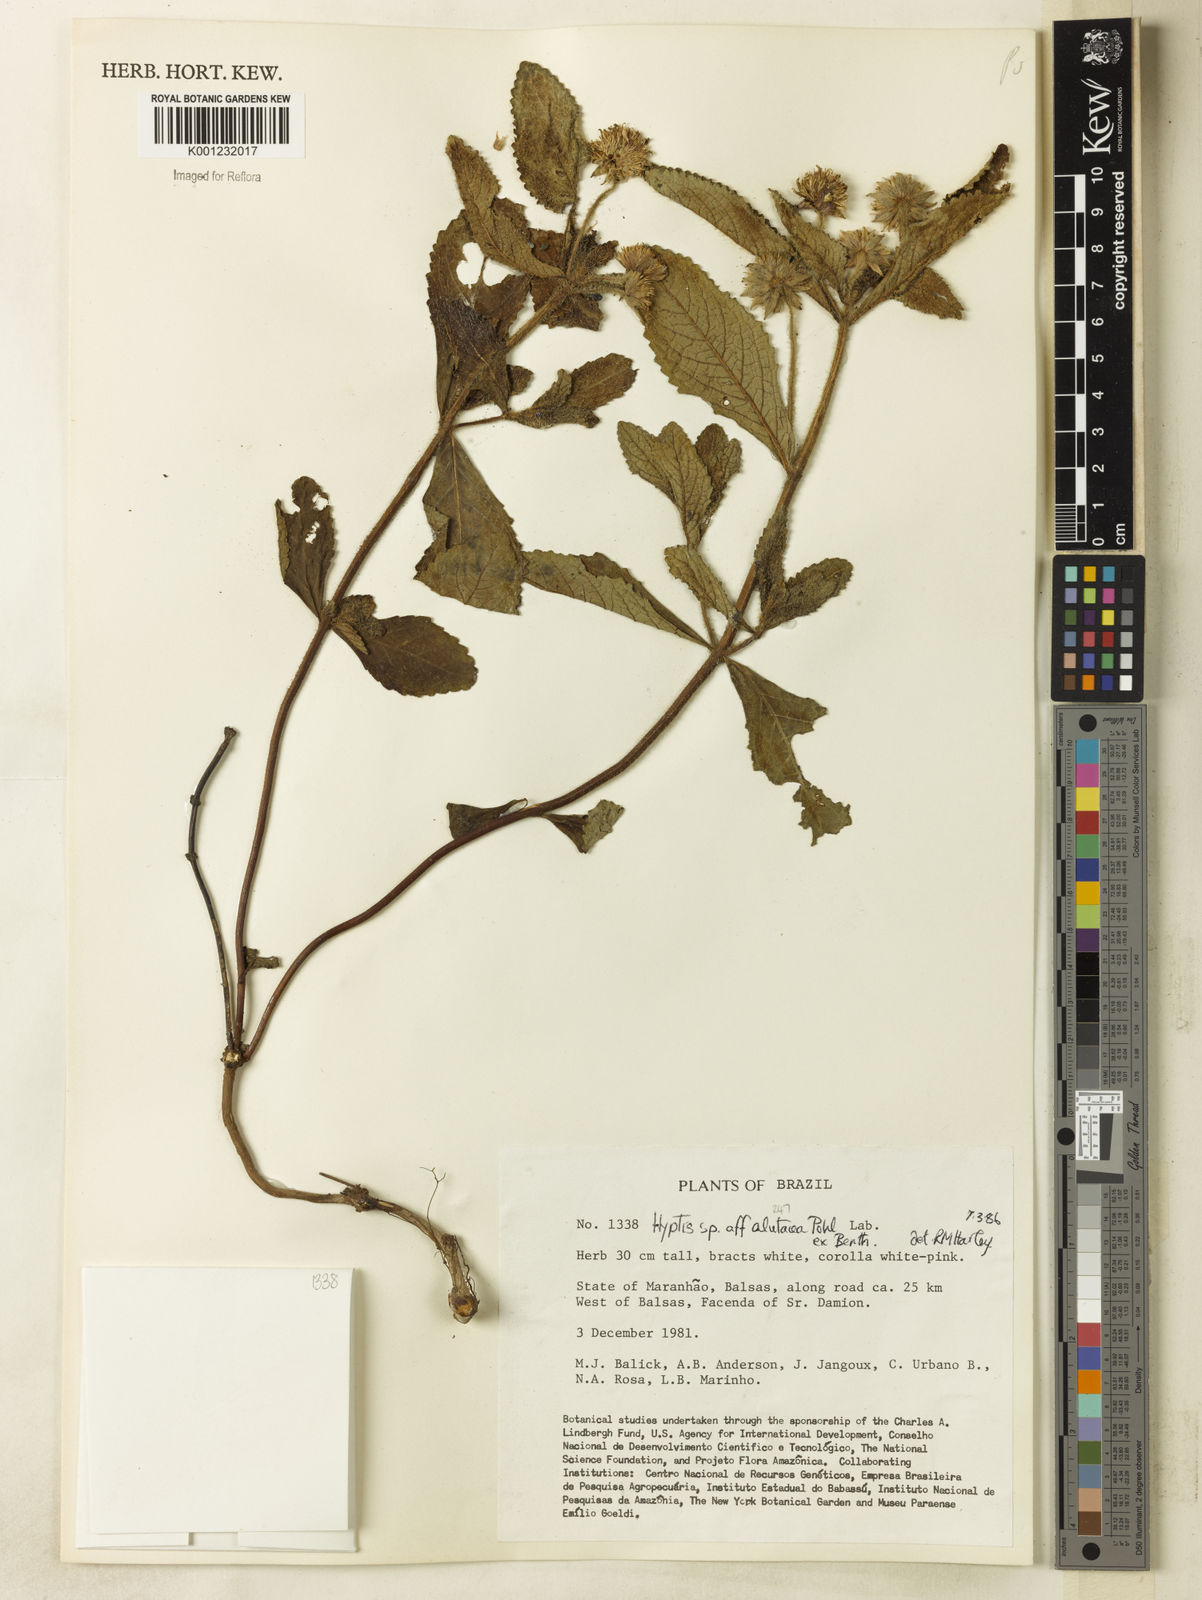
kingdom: Plantae
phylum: Tracheophyta
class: Magnoliopsida
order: Lamiales
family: Lamiaceae
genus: Hyptis
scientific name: Hyptis alutacea
